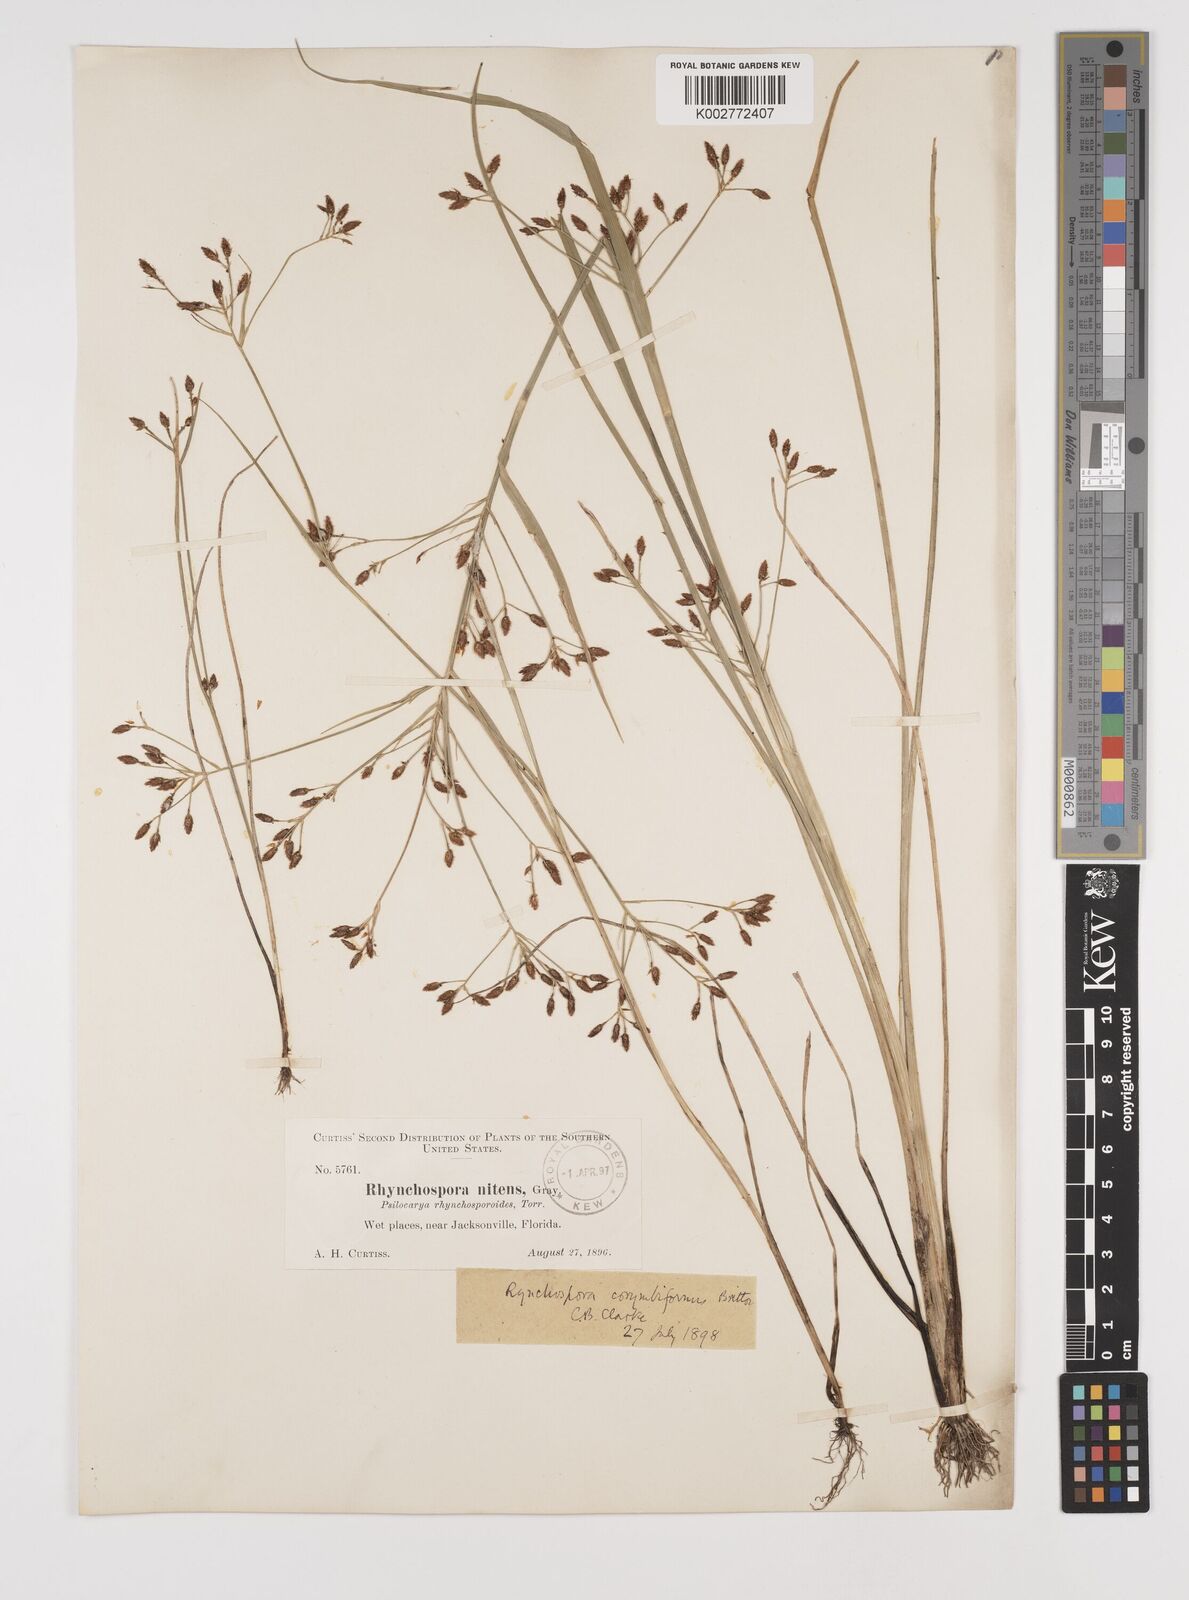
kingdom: Plantae
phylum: Tracheophyta
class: Liliopsida
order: Poales
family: Cyperaceae
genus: Rhynchospora
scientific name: Rhynchospora scirpoides
